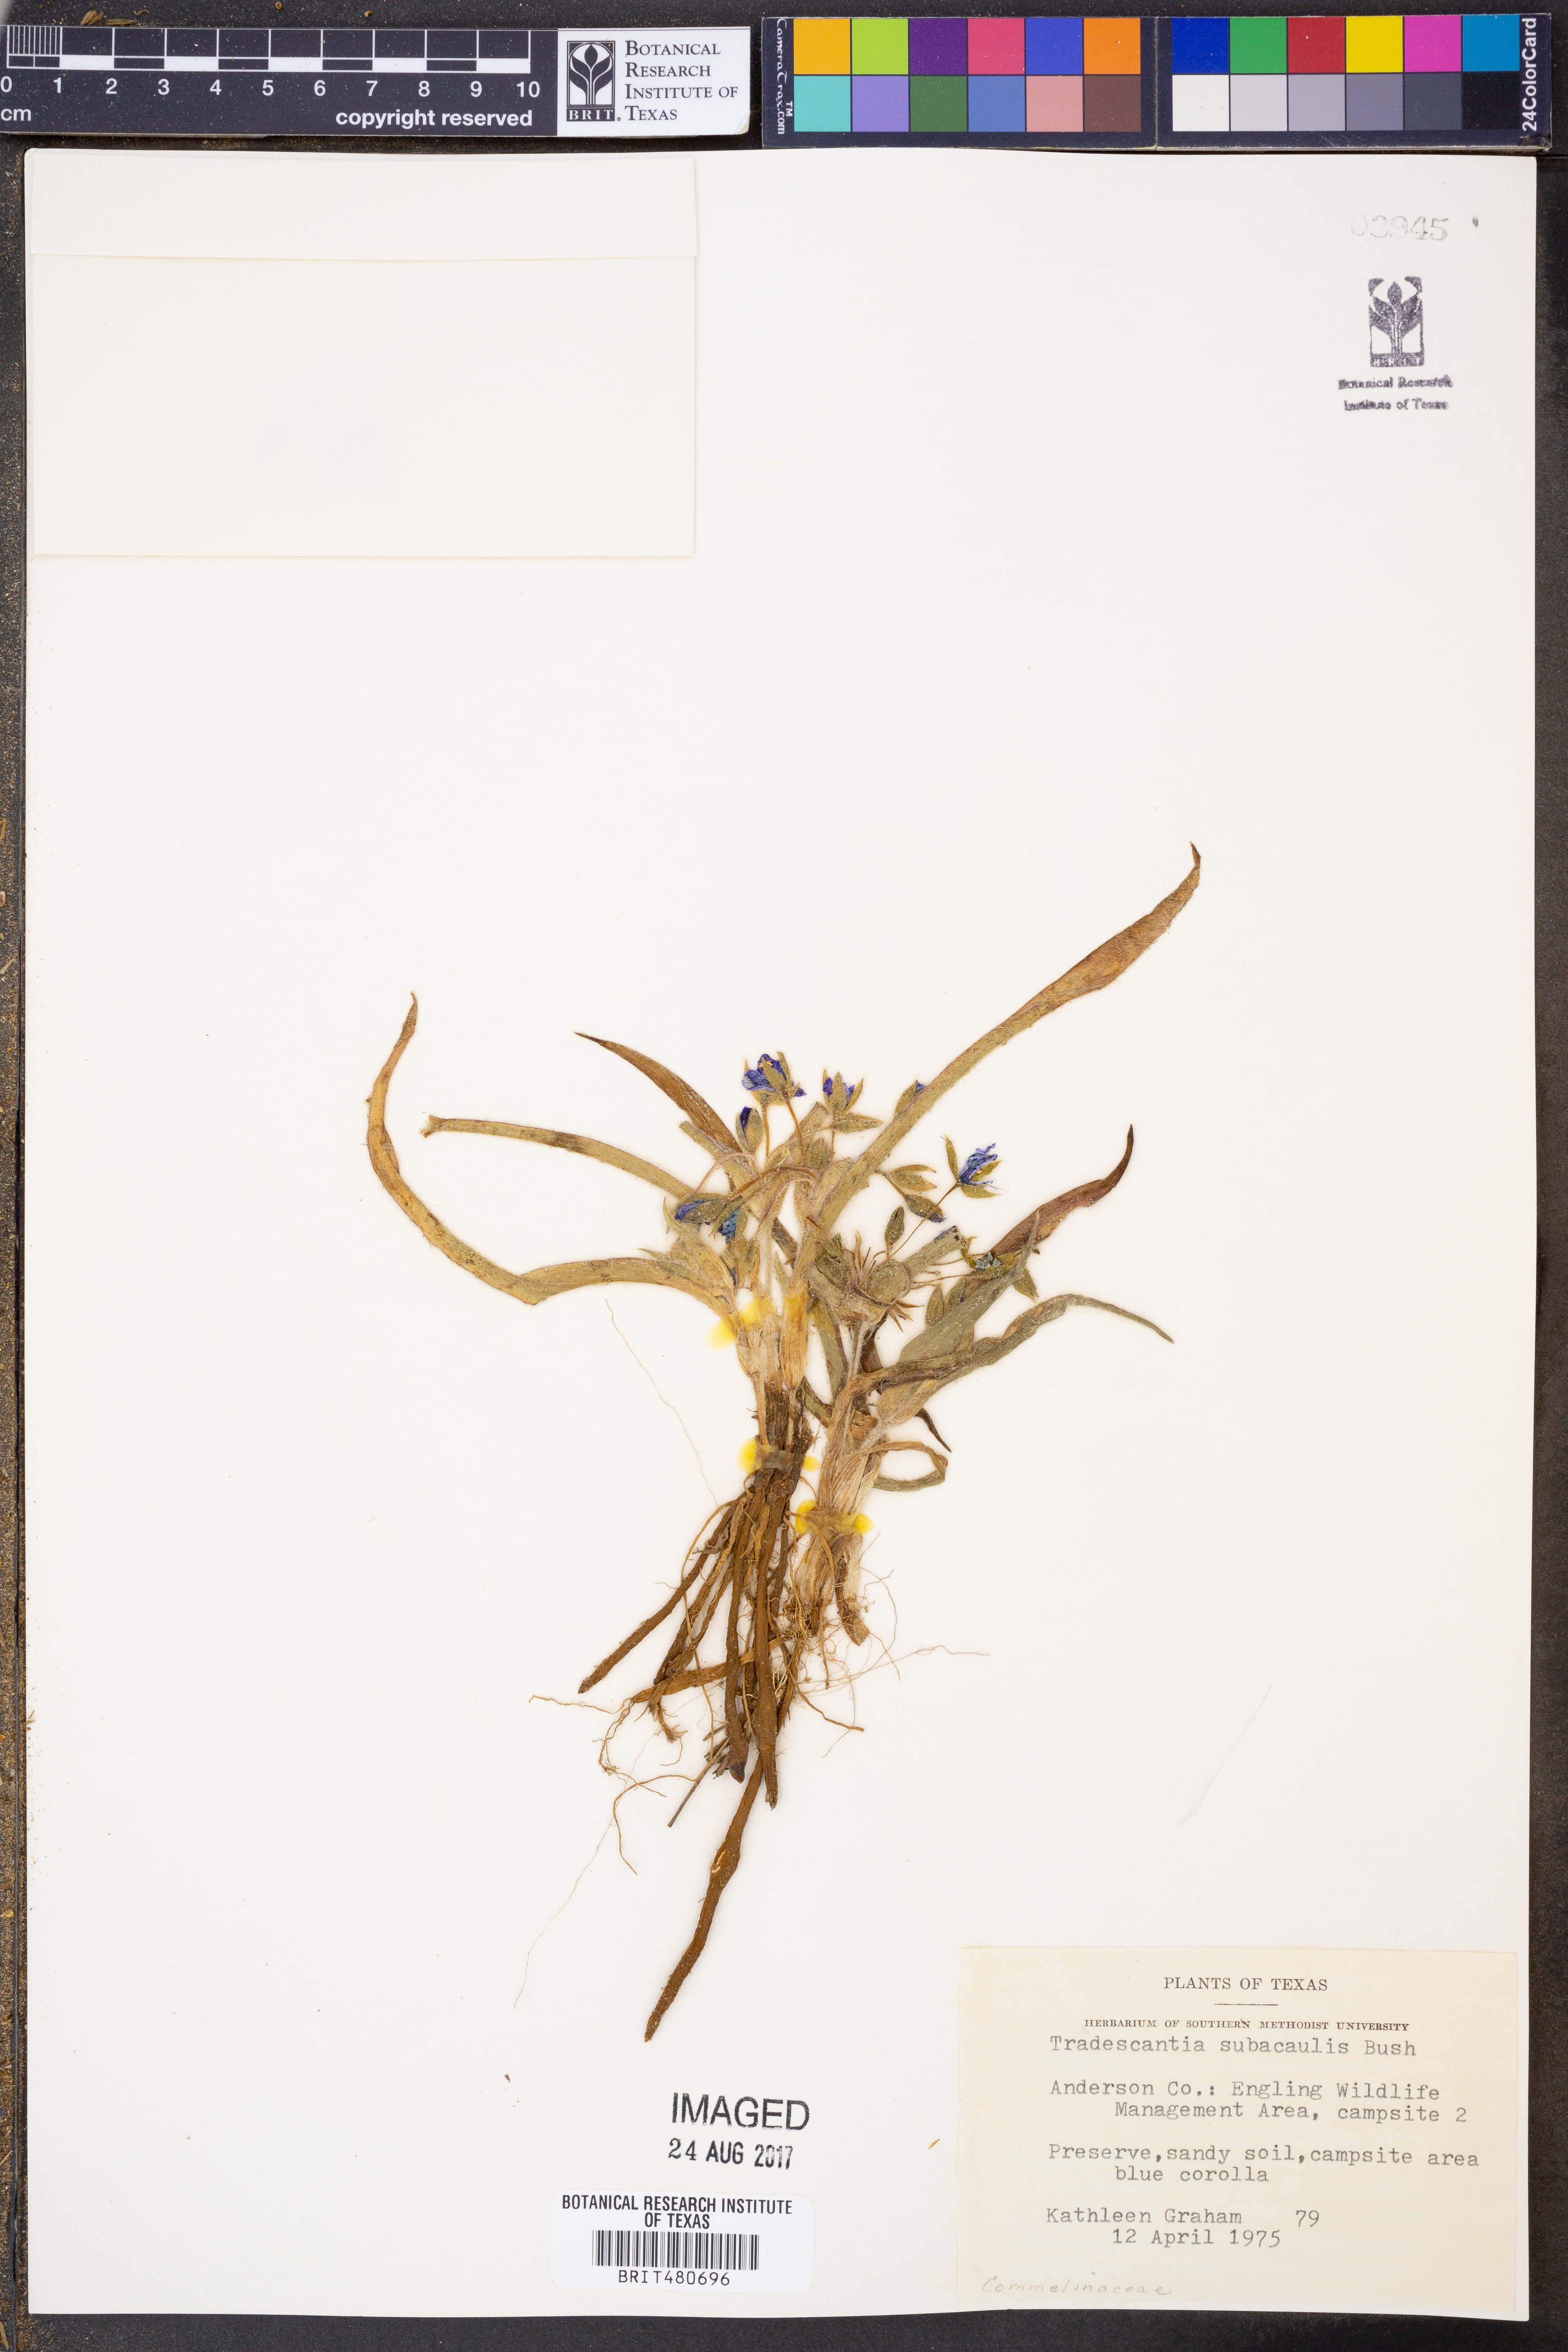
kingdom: Plantae
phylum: Tracheophyta
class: Liliopsida
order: Commelinales
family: Commelinaceae
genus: Tradescantia
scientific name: Tradescantia subacaulis
